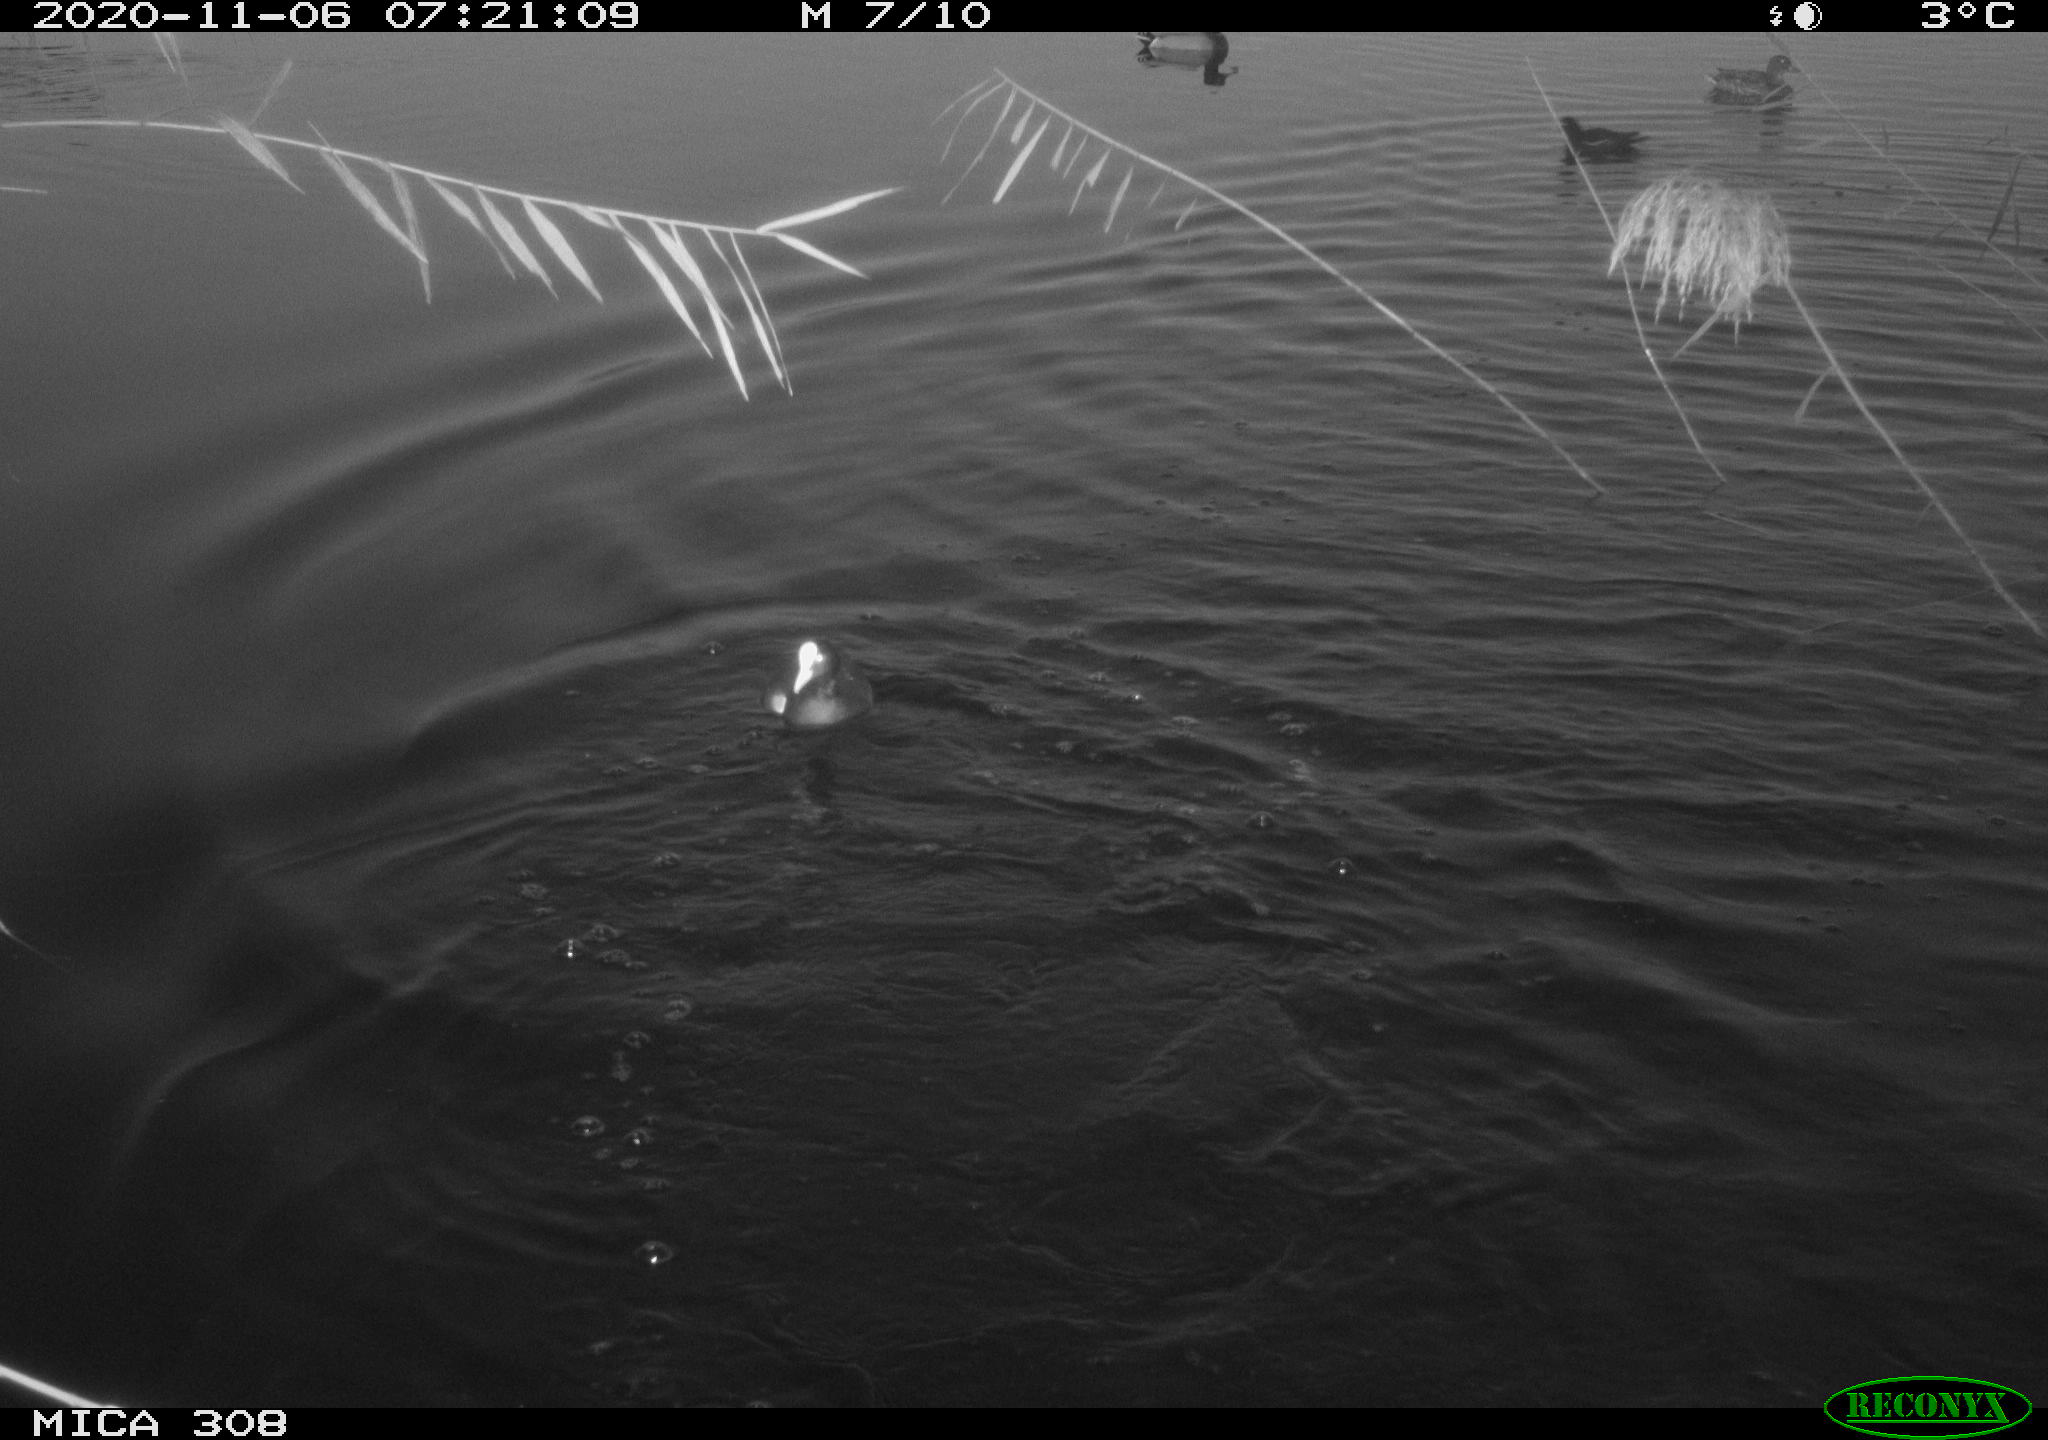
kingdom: Animalia
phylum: Chordata
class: Aves
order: Gruiformes
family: Rallidae
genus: Fulica
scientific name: Fulica atra
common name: Eurasian coot
